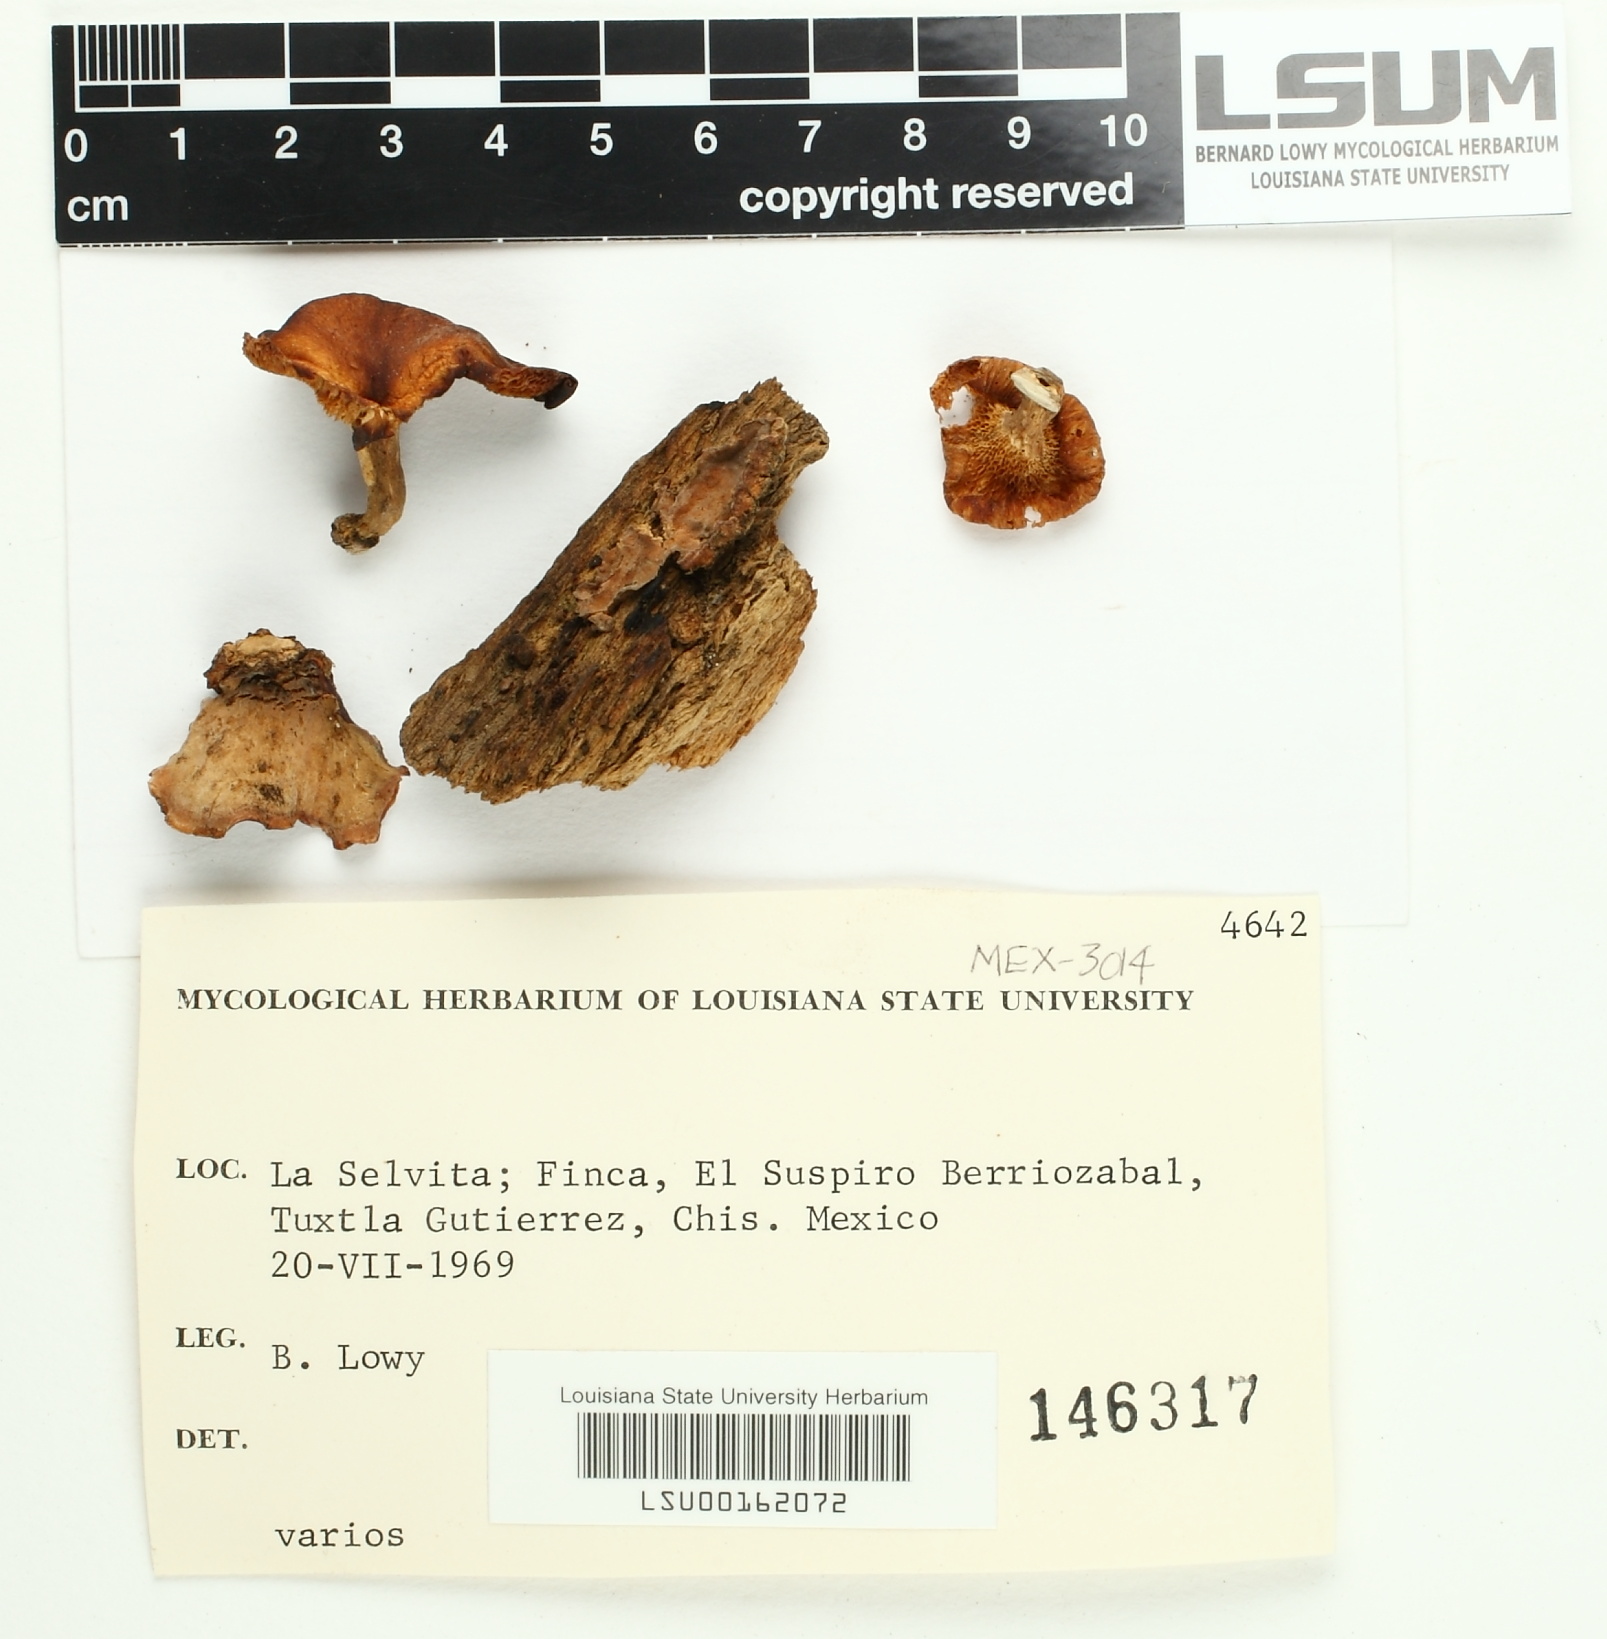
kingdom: Fungi
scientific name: Fungi
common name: Fungi
